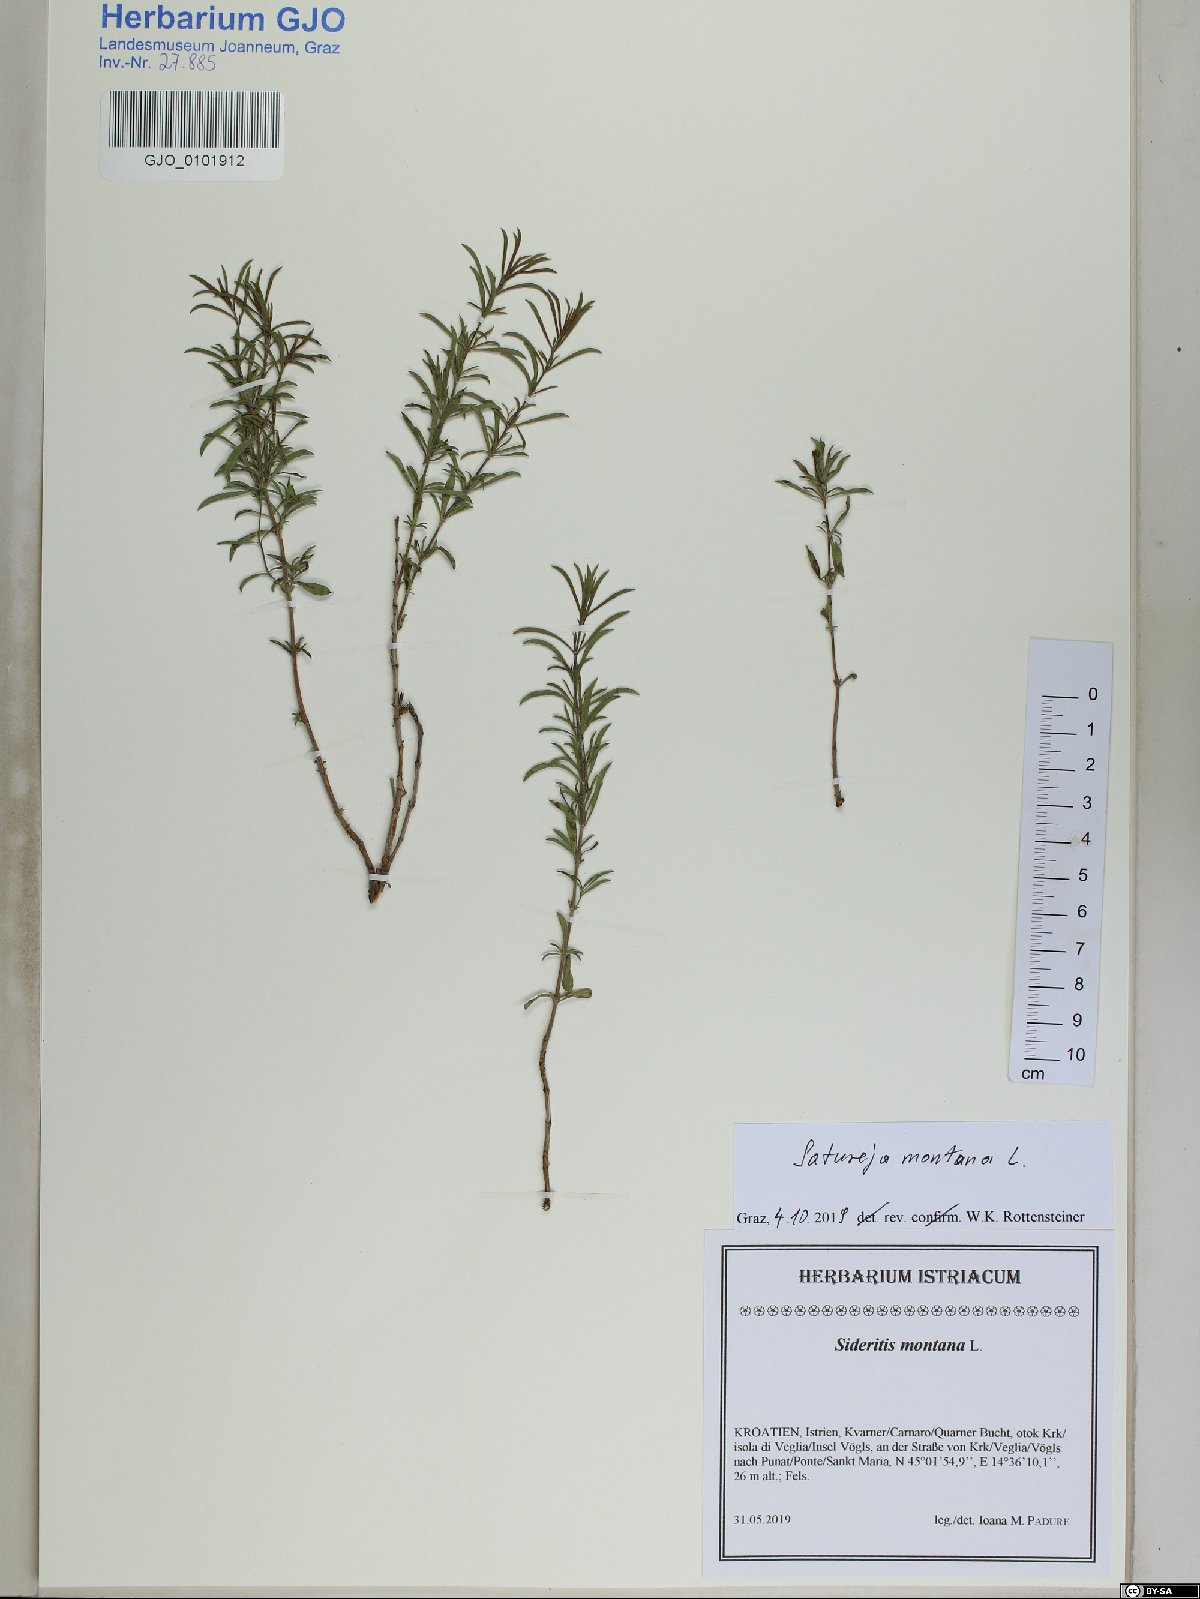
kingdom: Plantae
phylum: Tracheophyta
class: Magnoliopsida
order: Lamiales
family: Lamiaceae
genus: Sideritis
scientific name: Sideritis montana
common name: Mountain ironwort
